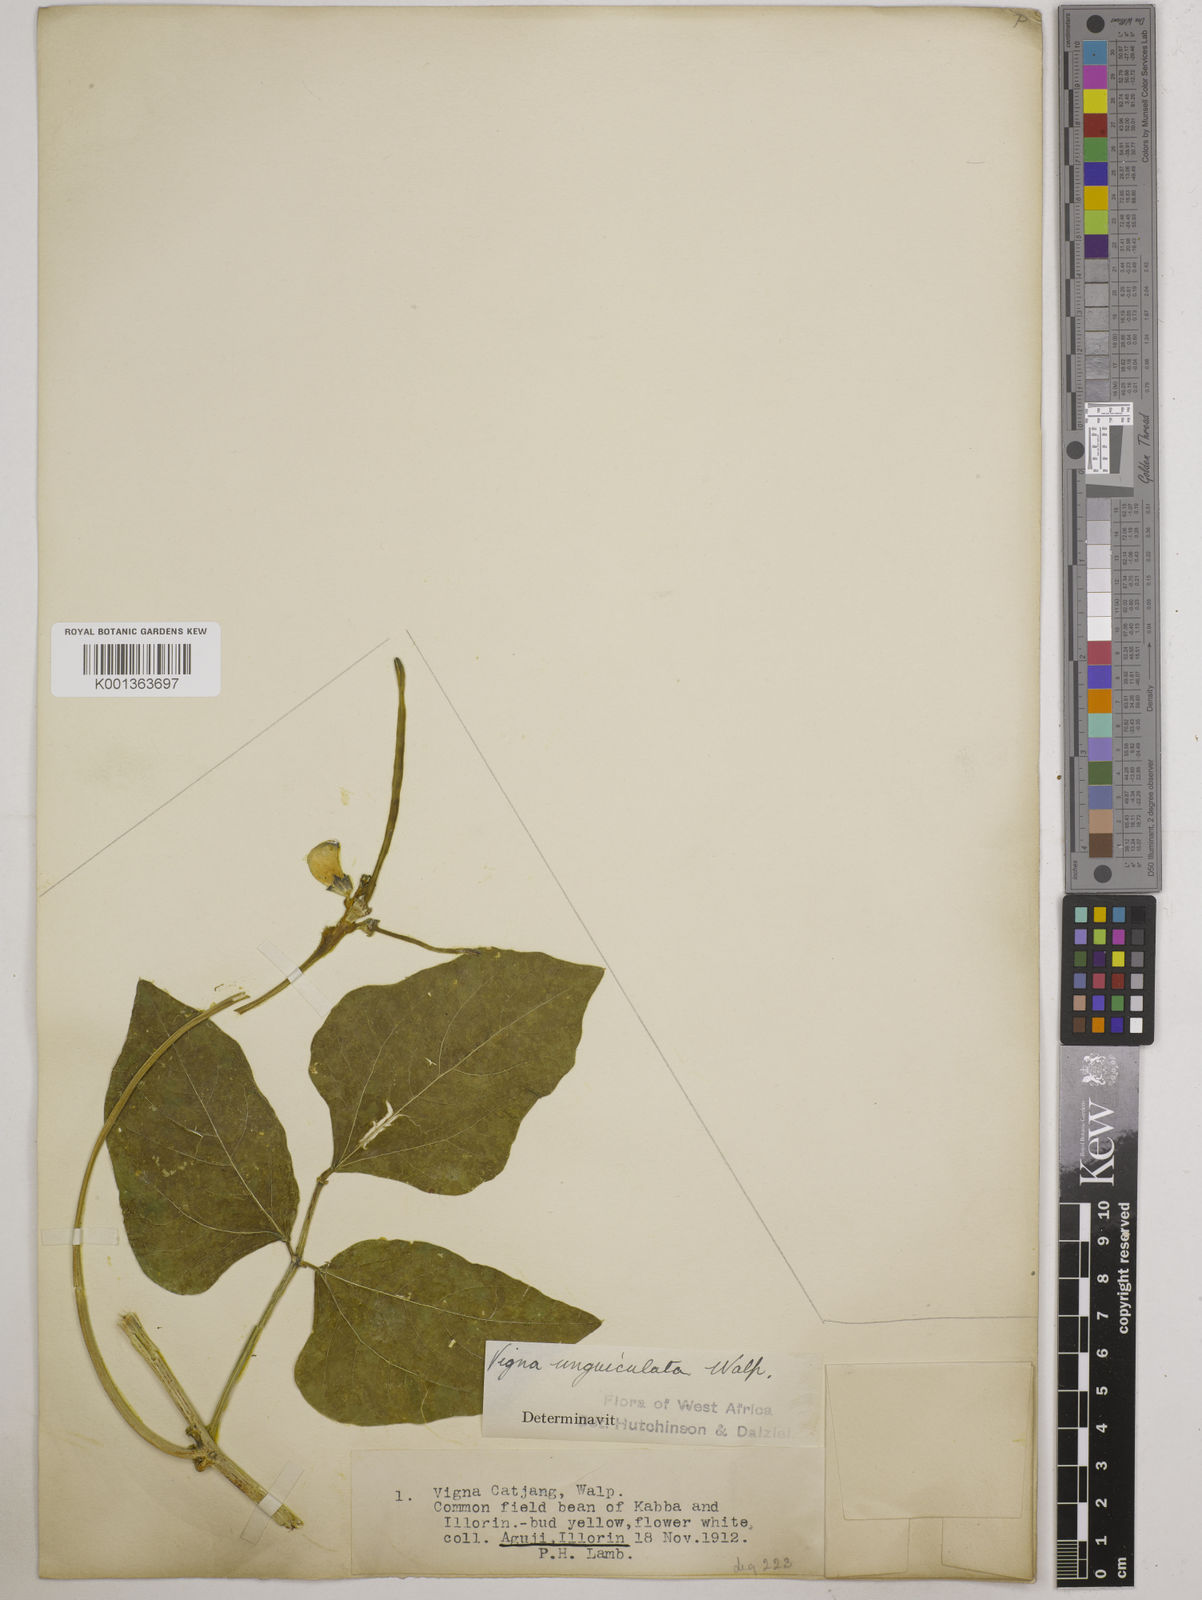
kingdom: Plantae
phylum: Tracheophyta
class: Magnoliopsida
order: Fabales
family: Fabaceae
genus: Vigna
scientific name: Vigna unguiculata
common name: Cowpea
